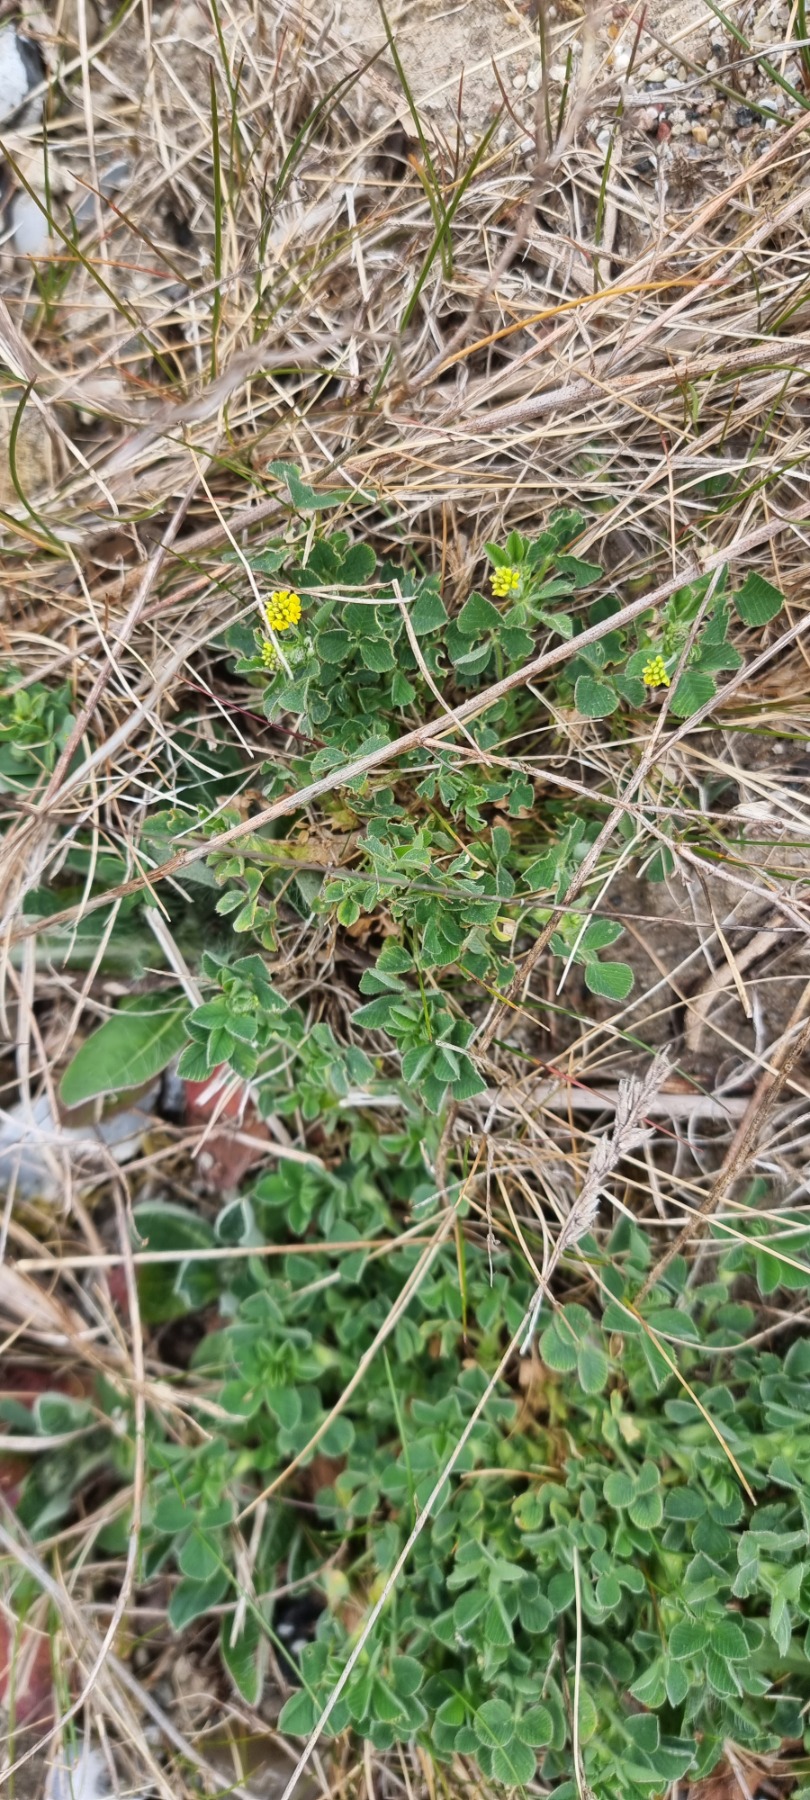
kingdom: Plantae
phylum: Tracheophyta
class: Magnoliopsida
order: Fabales
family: Fabaceae
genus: Medicago
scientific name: Medicago lupulina
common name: Humle-sneglebælg
